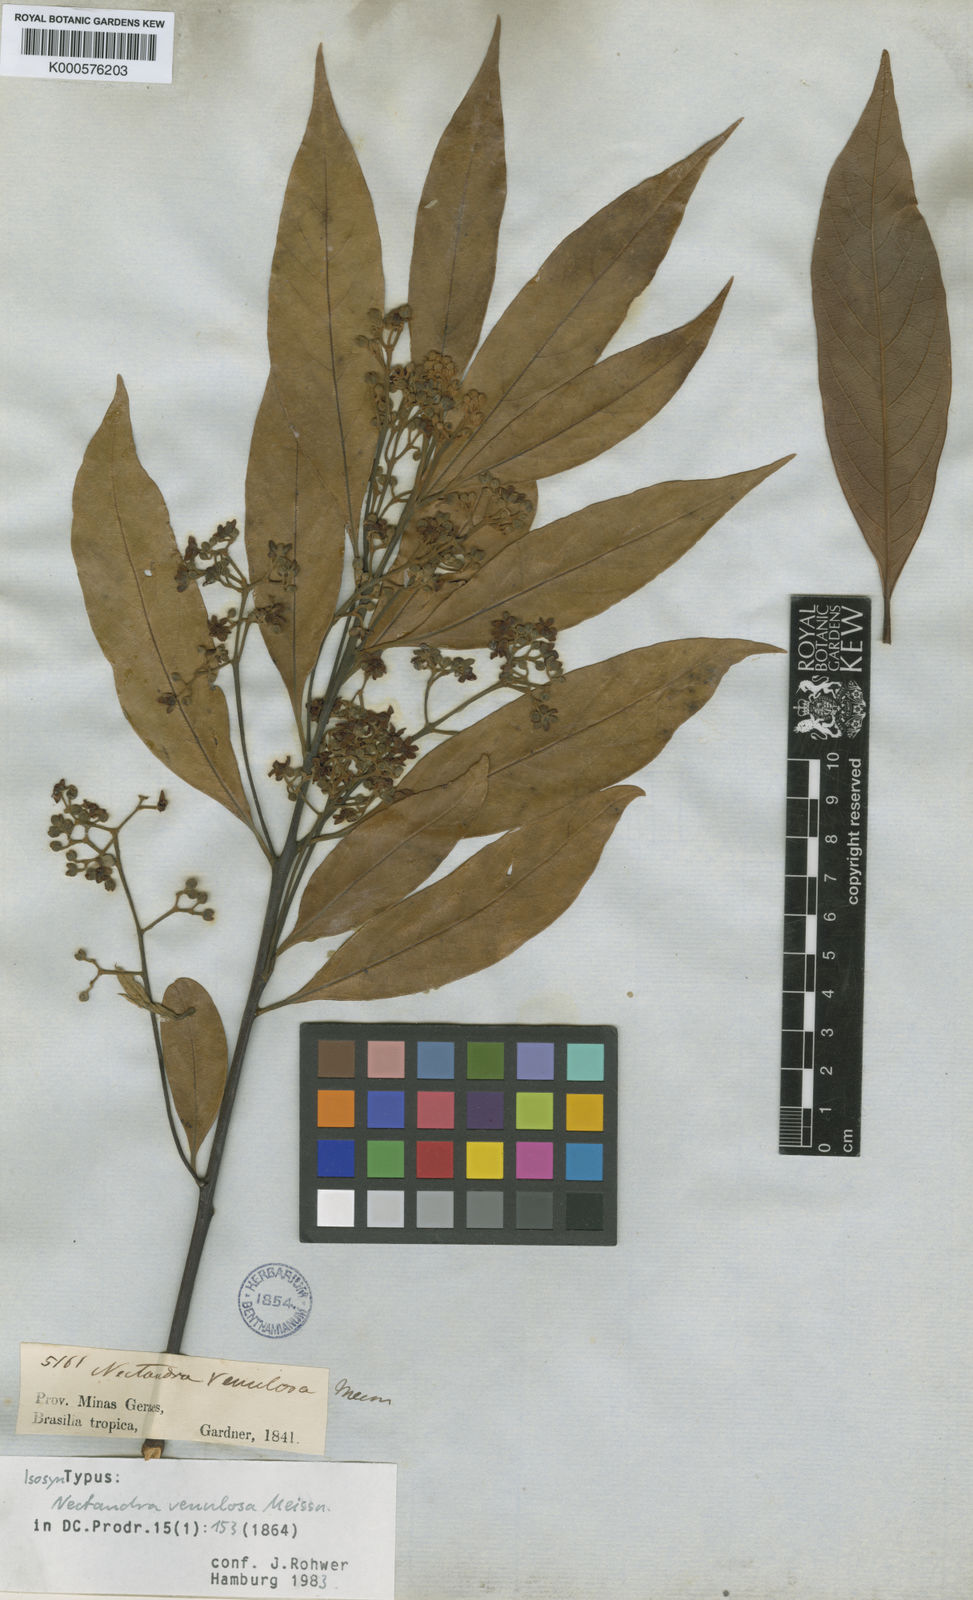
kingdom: Plantae
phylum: Tracheophyta
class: Magnoliopsida
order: Laurales
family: Lauraceae
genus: Nectandra
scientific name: Nectandra venulosa
